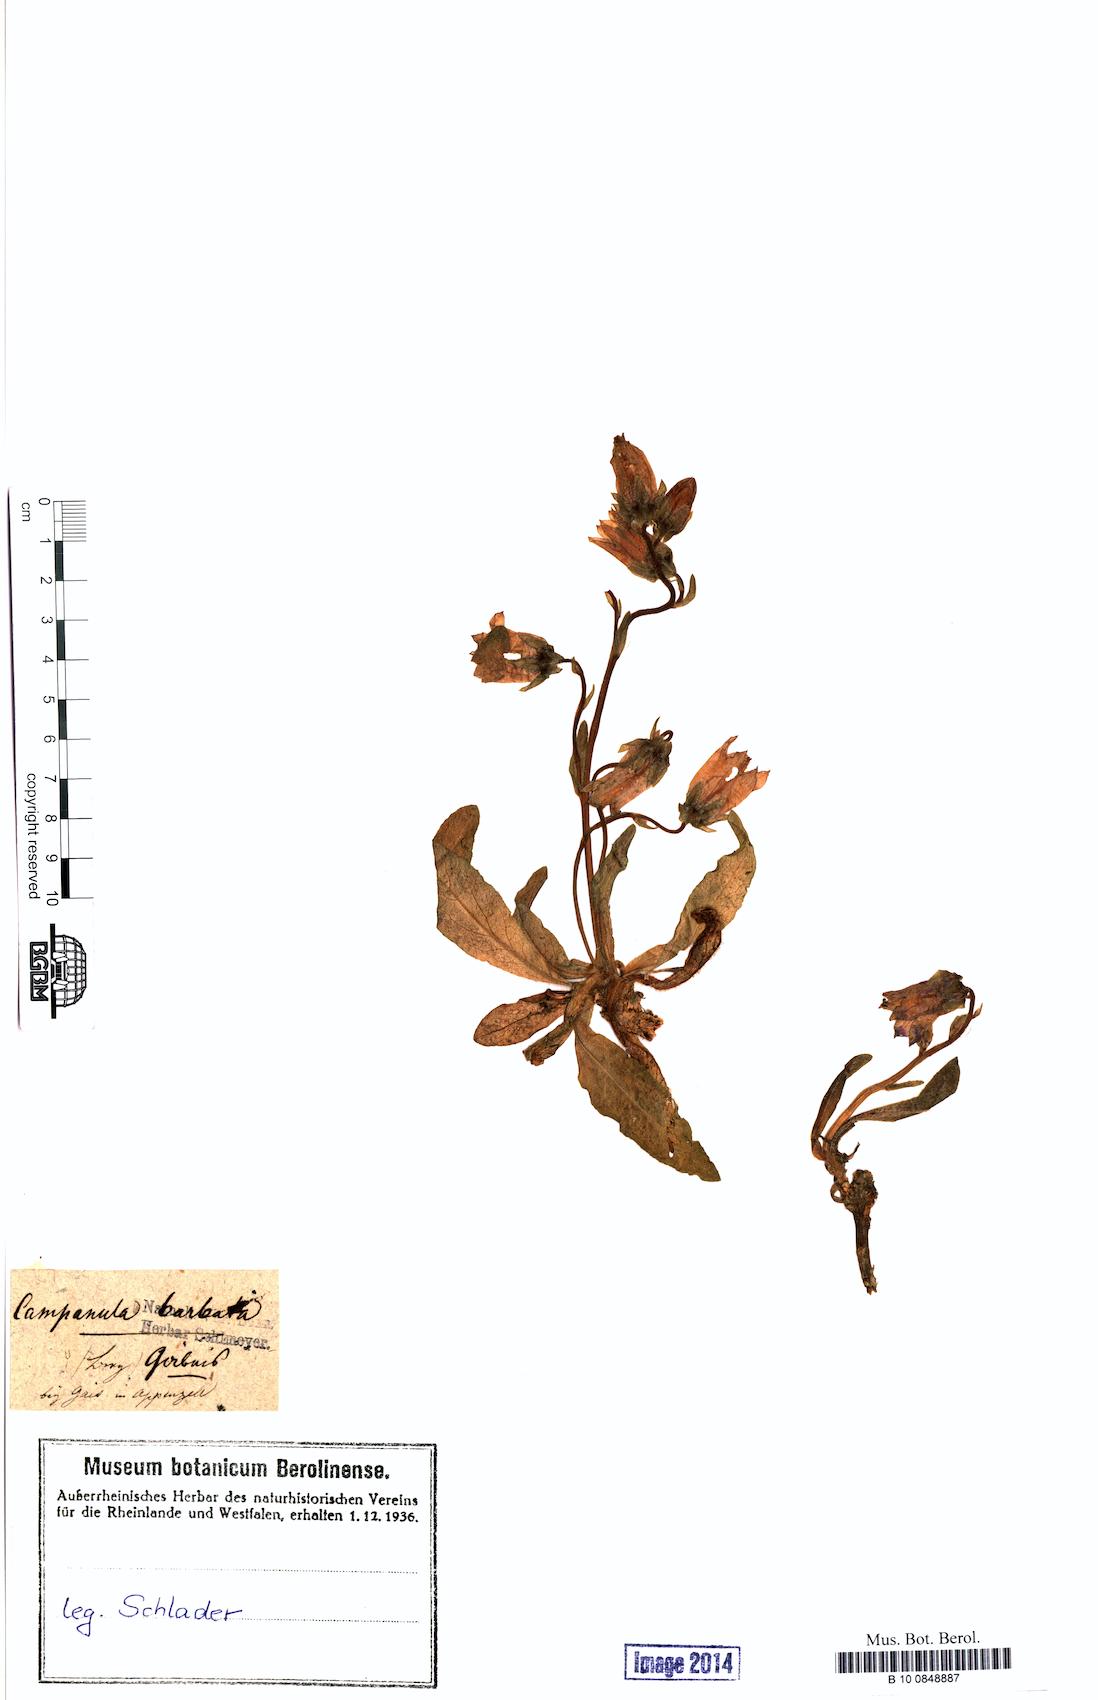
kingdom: Plantae
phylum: Tracheophyta
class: Magnoliopsida
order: Asterales
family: Campanulaceae
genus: Campanula
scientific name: Campanula barbata
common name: Bearded bellflower
